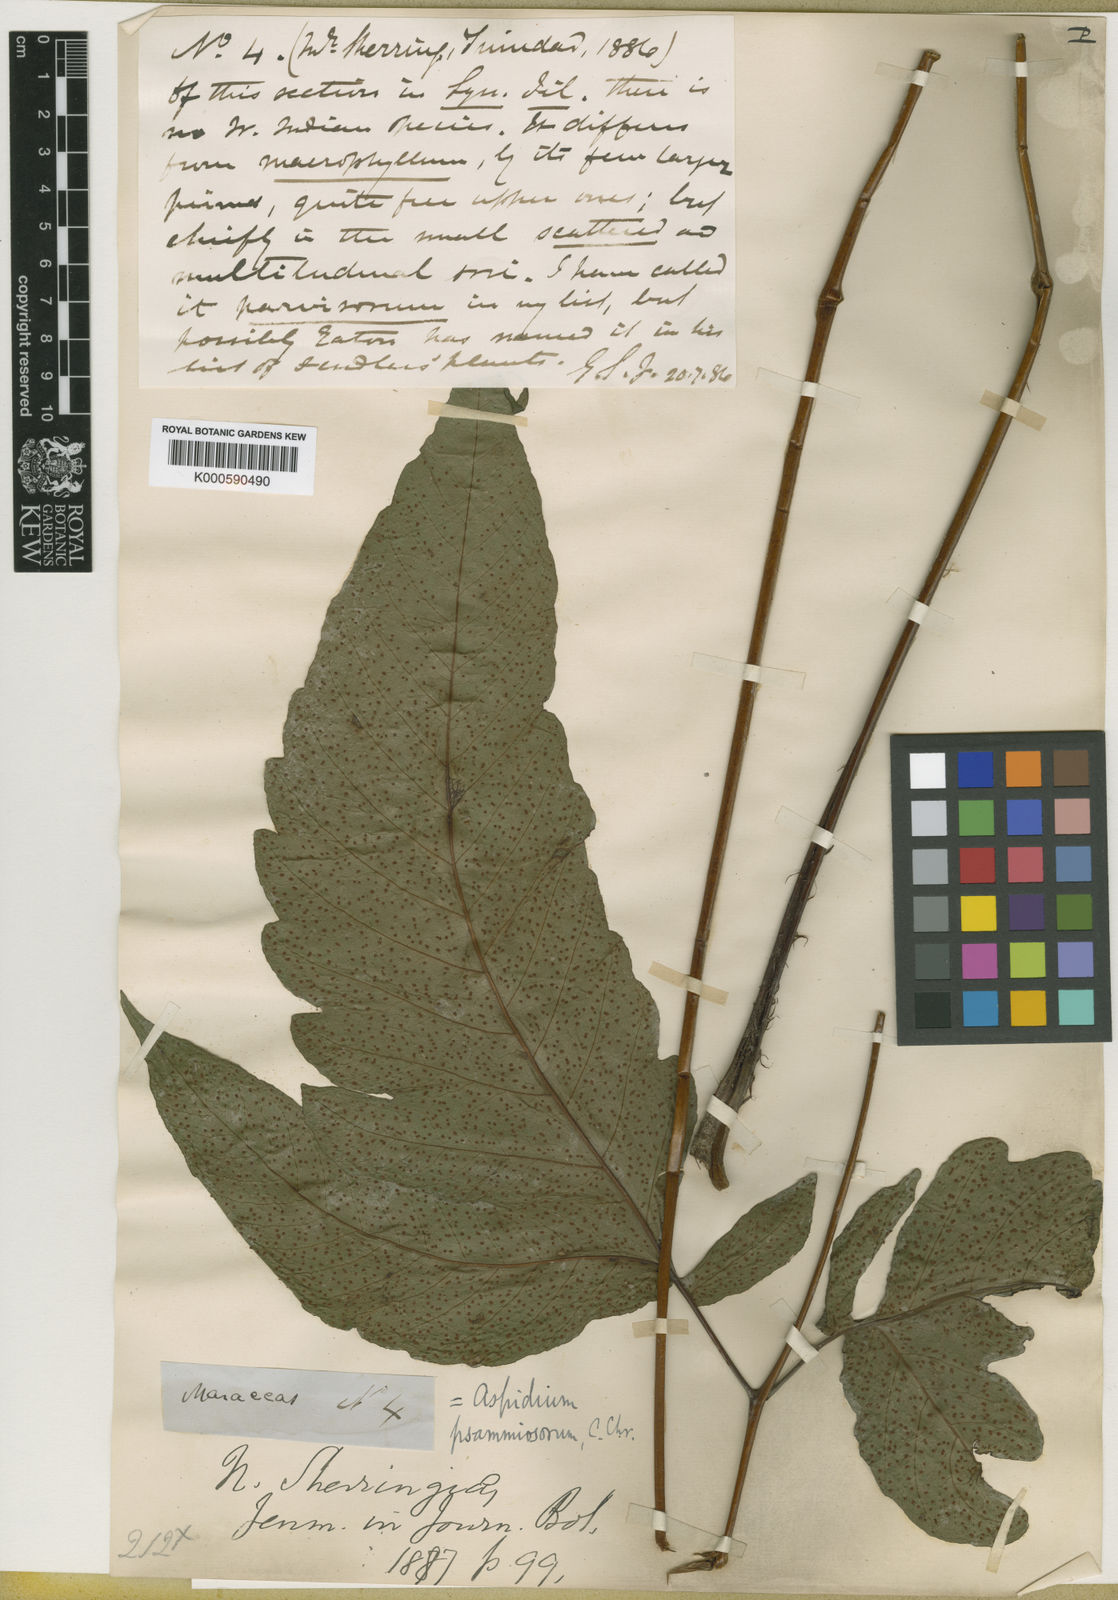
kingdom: Plantae
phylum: Tracheophyta
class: Polypodiopsida
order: Polypodiales
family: Tectariaceae
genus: Tectaria
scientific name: Tectaria trifoliata
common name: Threeleaf halberd fern
